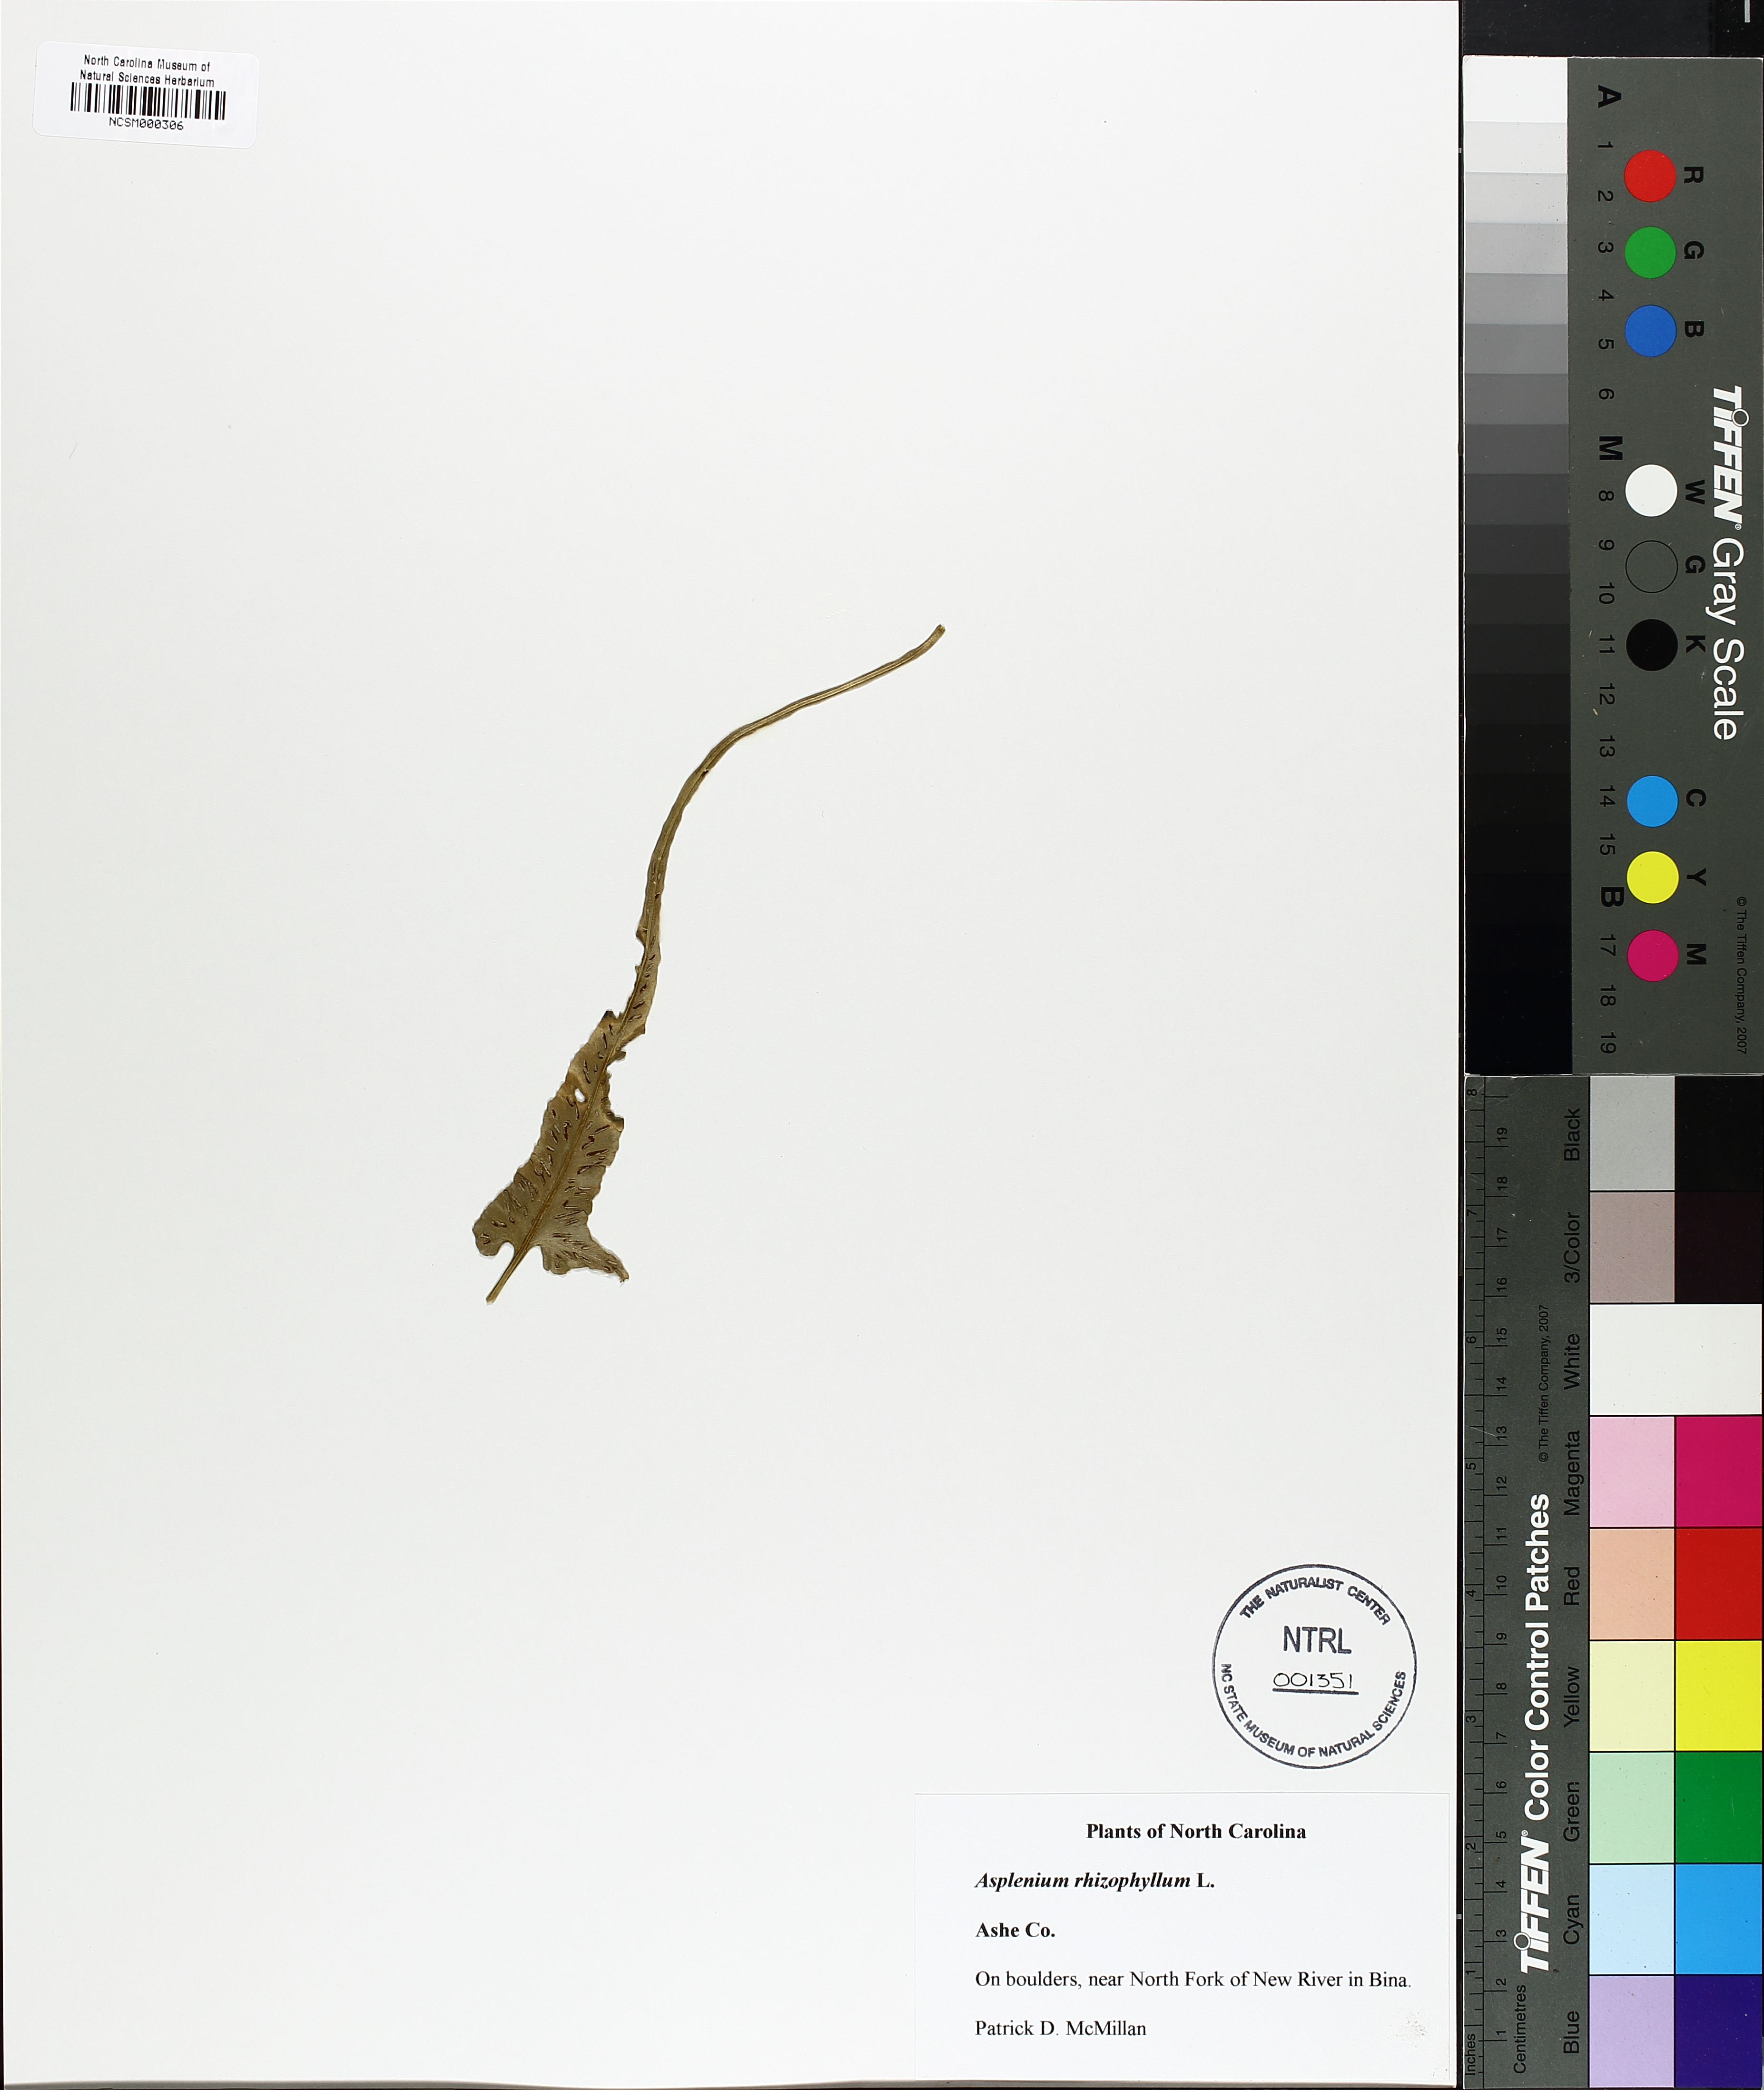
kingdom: Plantae
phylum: Tracheophyta
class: Polypodiopsida
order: Polypodiales
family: Aspleniaceae
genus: Asplenium
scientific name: Asplenium rhizophyllum
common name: Walking fern
